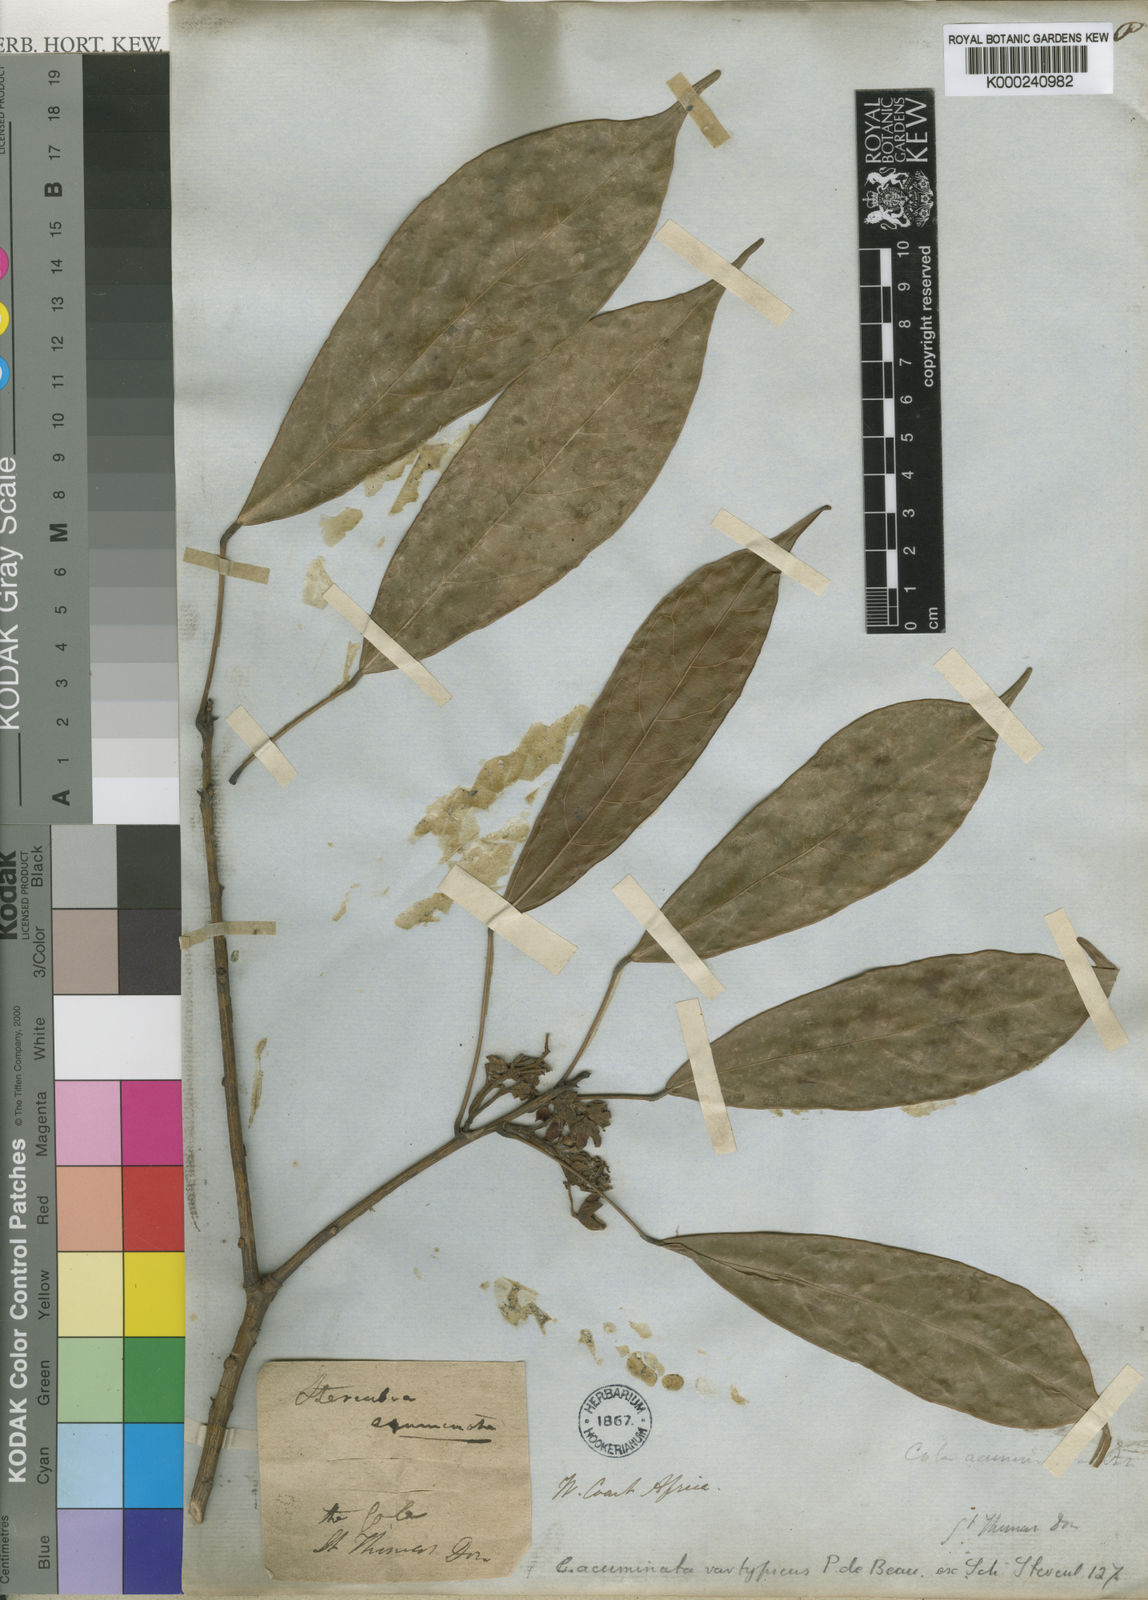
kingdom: Plantae
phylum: Tracheophyta
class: Magnoliopsida
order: Malvales
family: Malvaceae
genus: Cola
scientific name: Cola acuminata
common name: True kola
